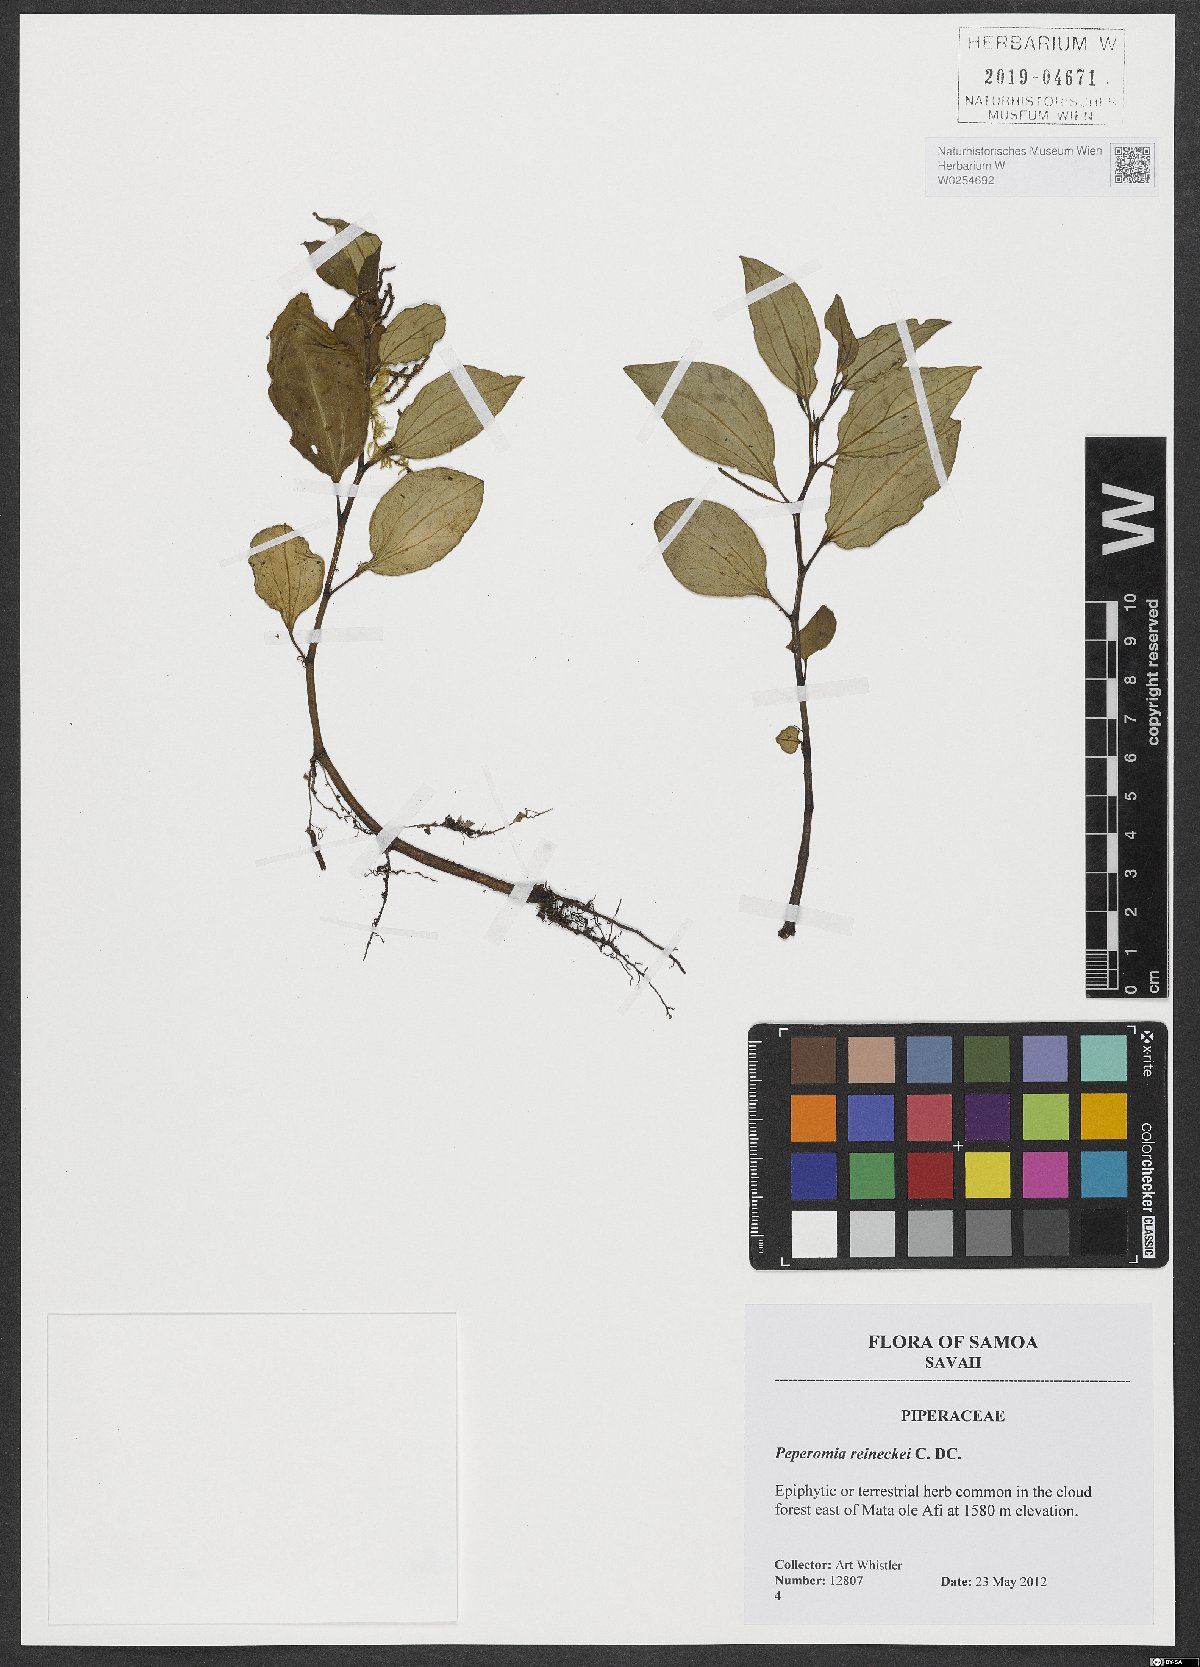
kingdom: Plantae
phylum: Tracheophyta
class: Magnoliopsida
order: Piperales
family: Piperaceae
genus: Peperomia
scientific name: Peperomia reineckei
